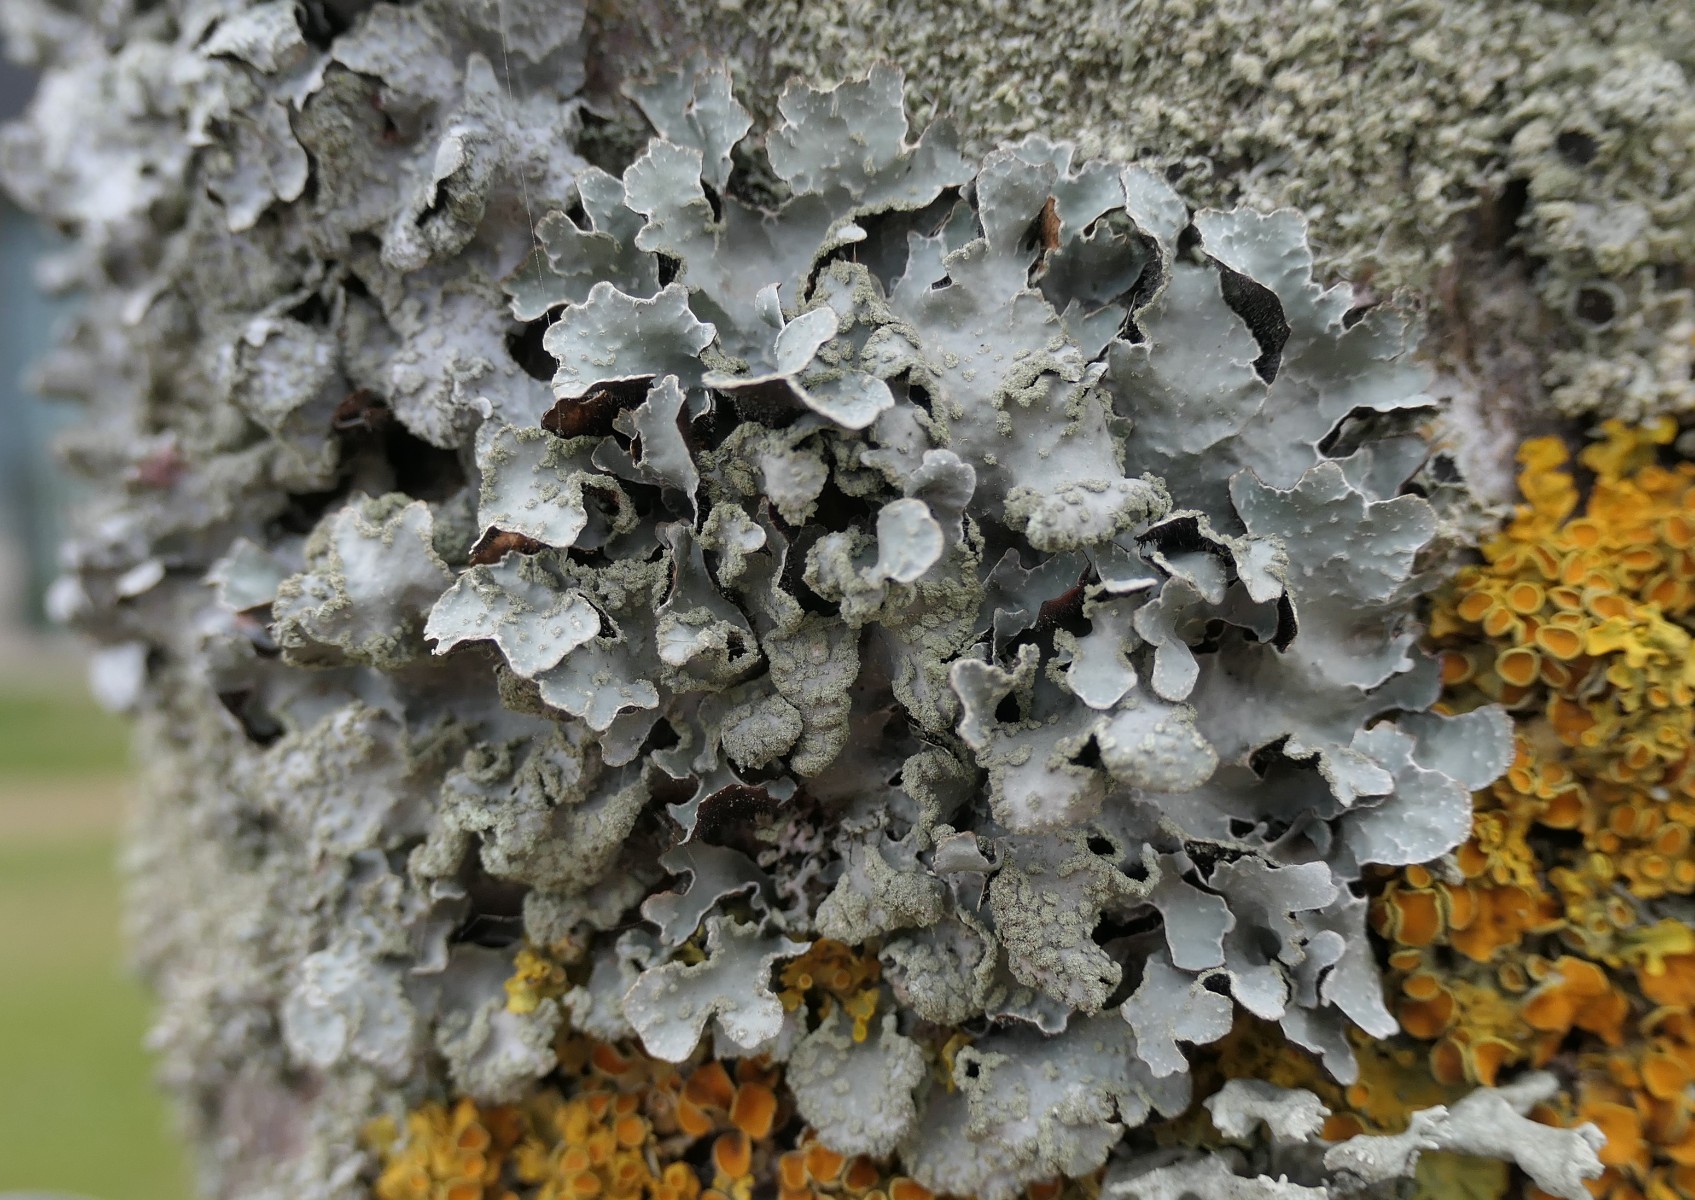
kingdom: Fungi
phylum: Ascomycota
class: Lecanoromycetes
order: Lecanorales
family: Parmeliaceae
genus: Parmelia
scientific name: Parmelia sulcata
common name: rynket skållav
